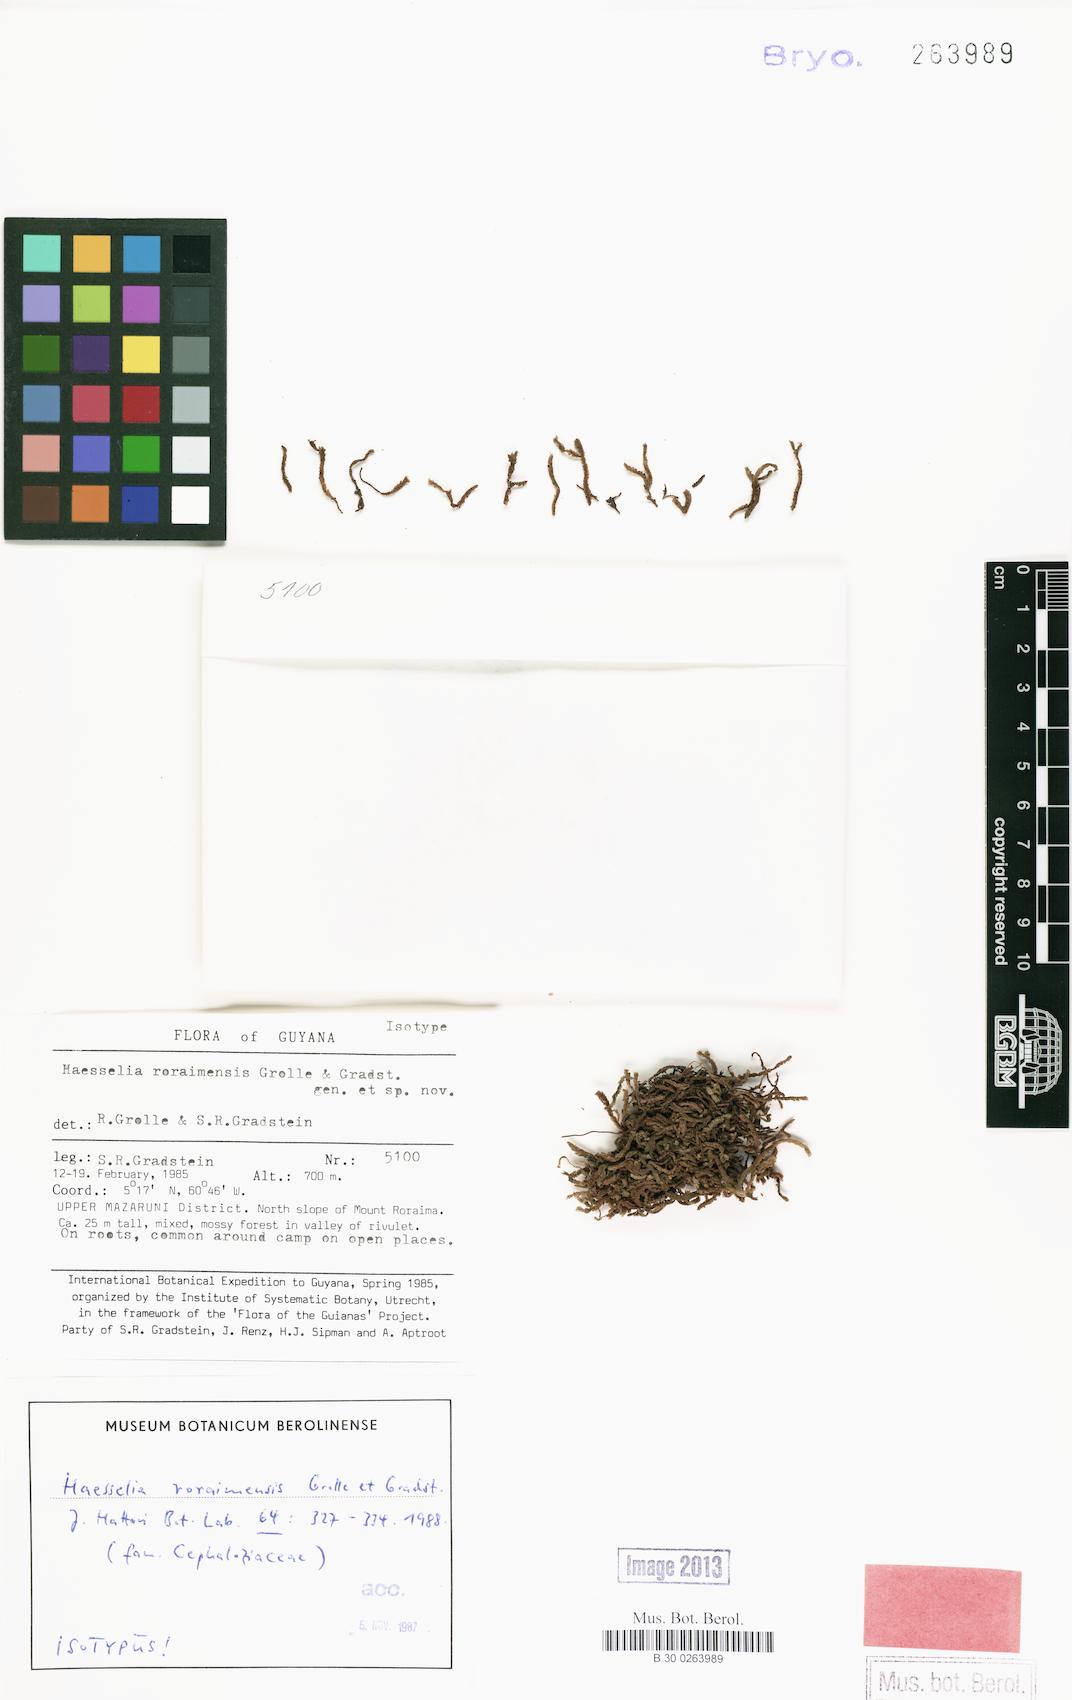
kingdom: Plantae
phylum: Marchantiophyta
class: Jungermanniopsida
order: Jungermanniales
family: Cephaloziaceae
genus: Haesselia
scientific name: Haesselia roraimensis
